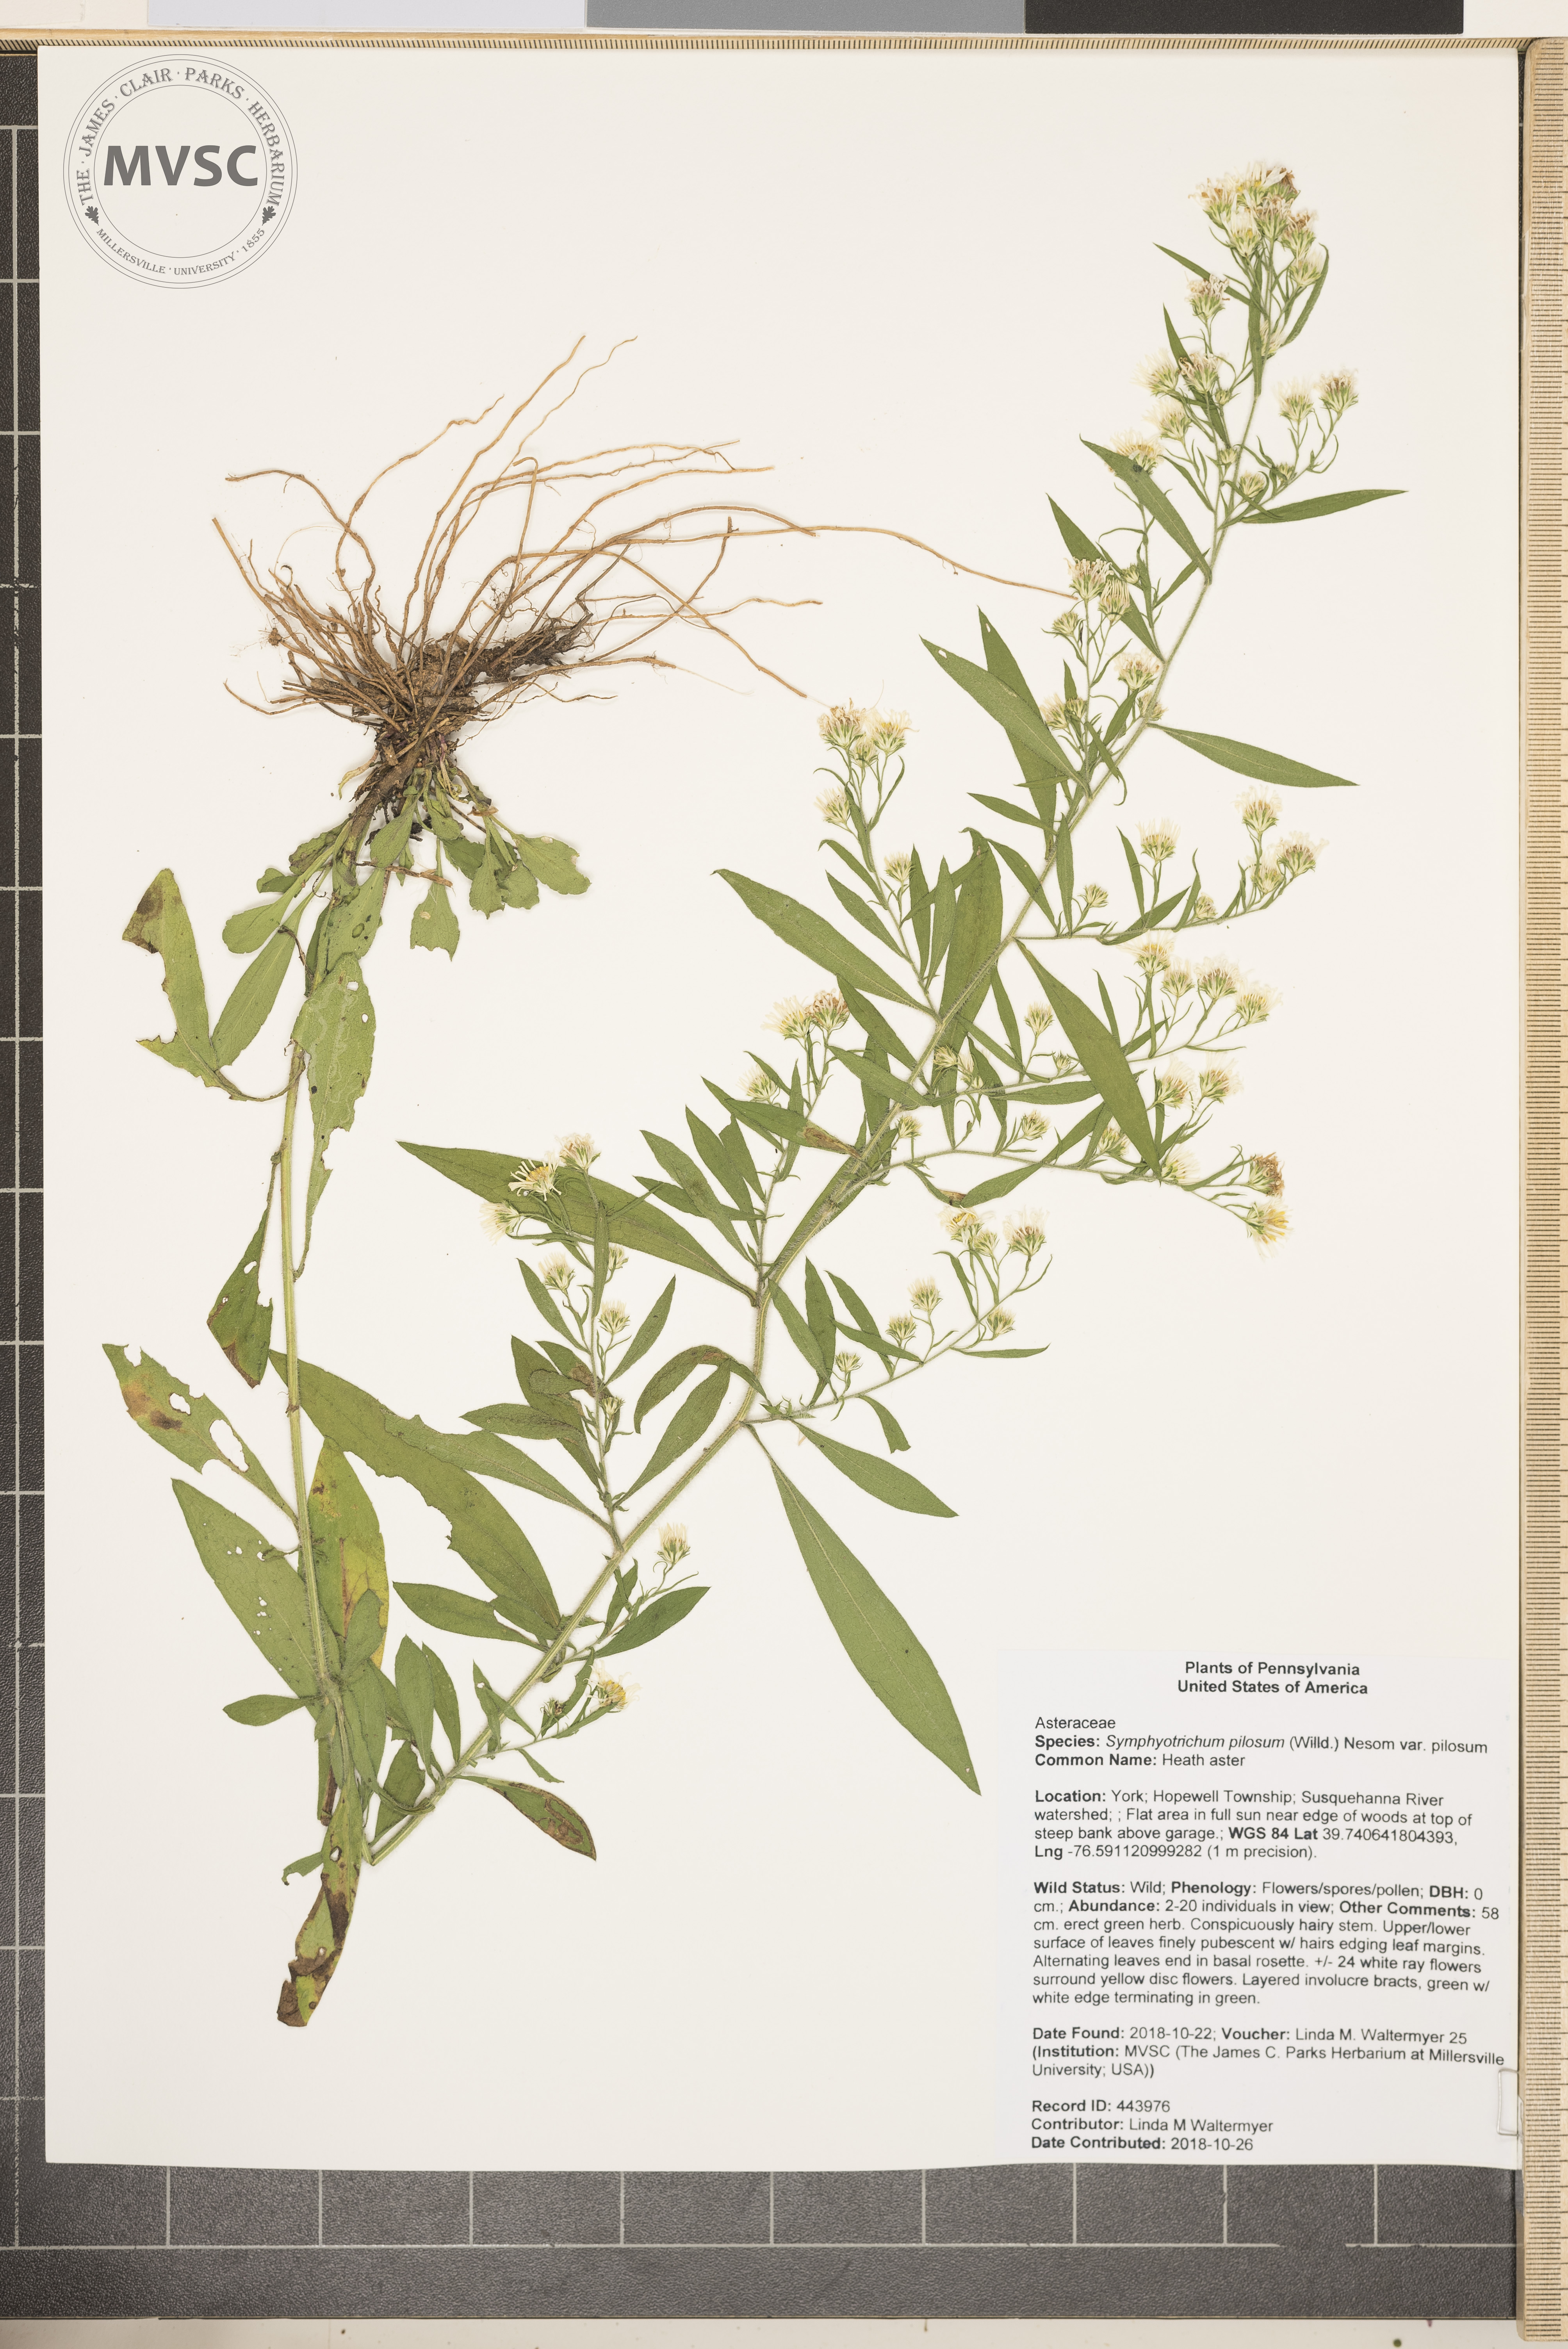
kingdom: Plantae
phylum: Tracheophyta
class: Magnoliopsida
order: Asterales
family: Asteraceae
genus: Symphyotrichum
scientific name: Symphyotrichum pilosum
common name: Heath aster
